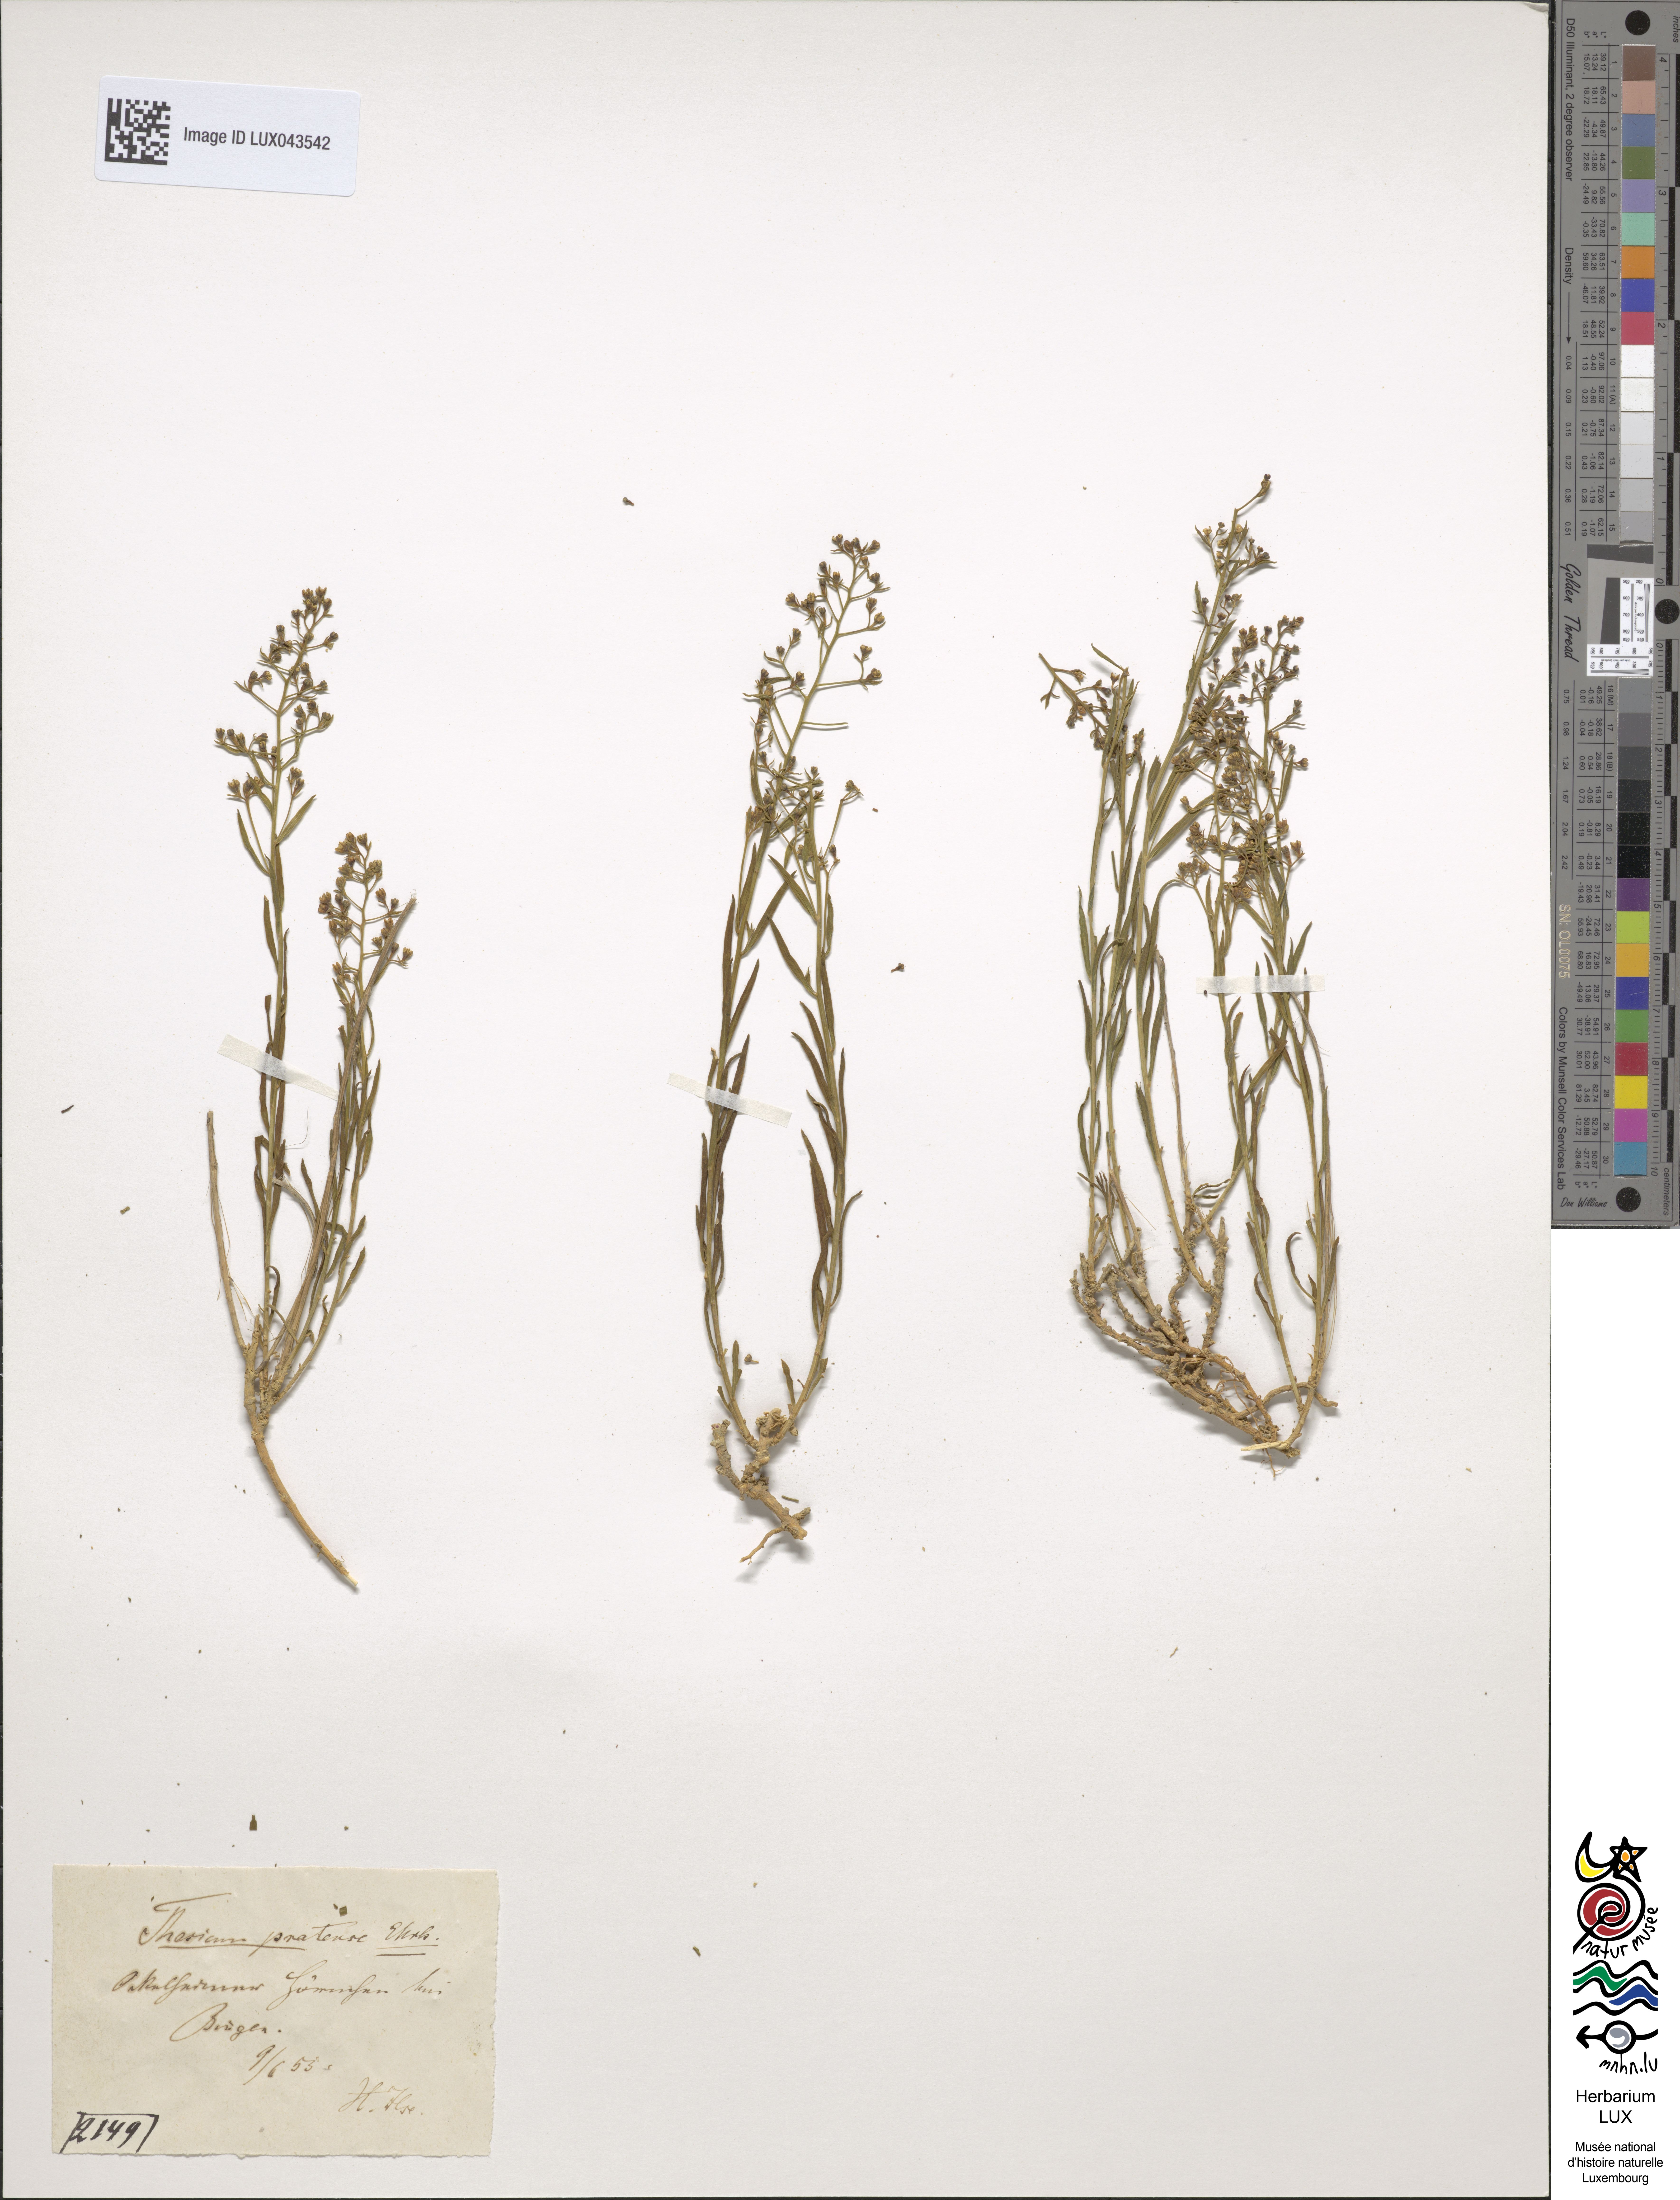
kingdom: Plantae
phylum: Tracheophyta
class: Magnoliopsida
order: Santalales
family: Thesiaceae
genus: Thesium
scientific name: Thesium pyrenaicum
